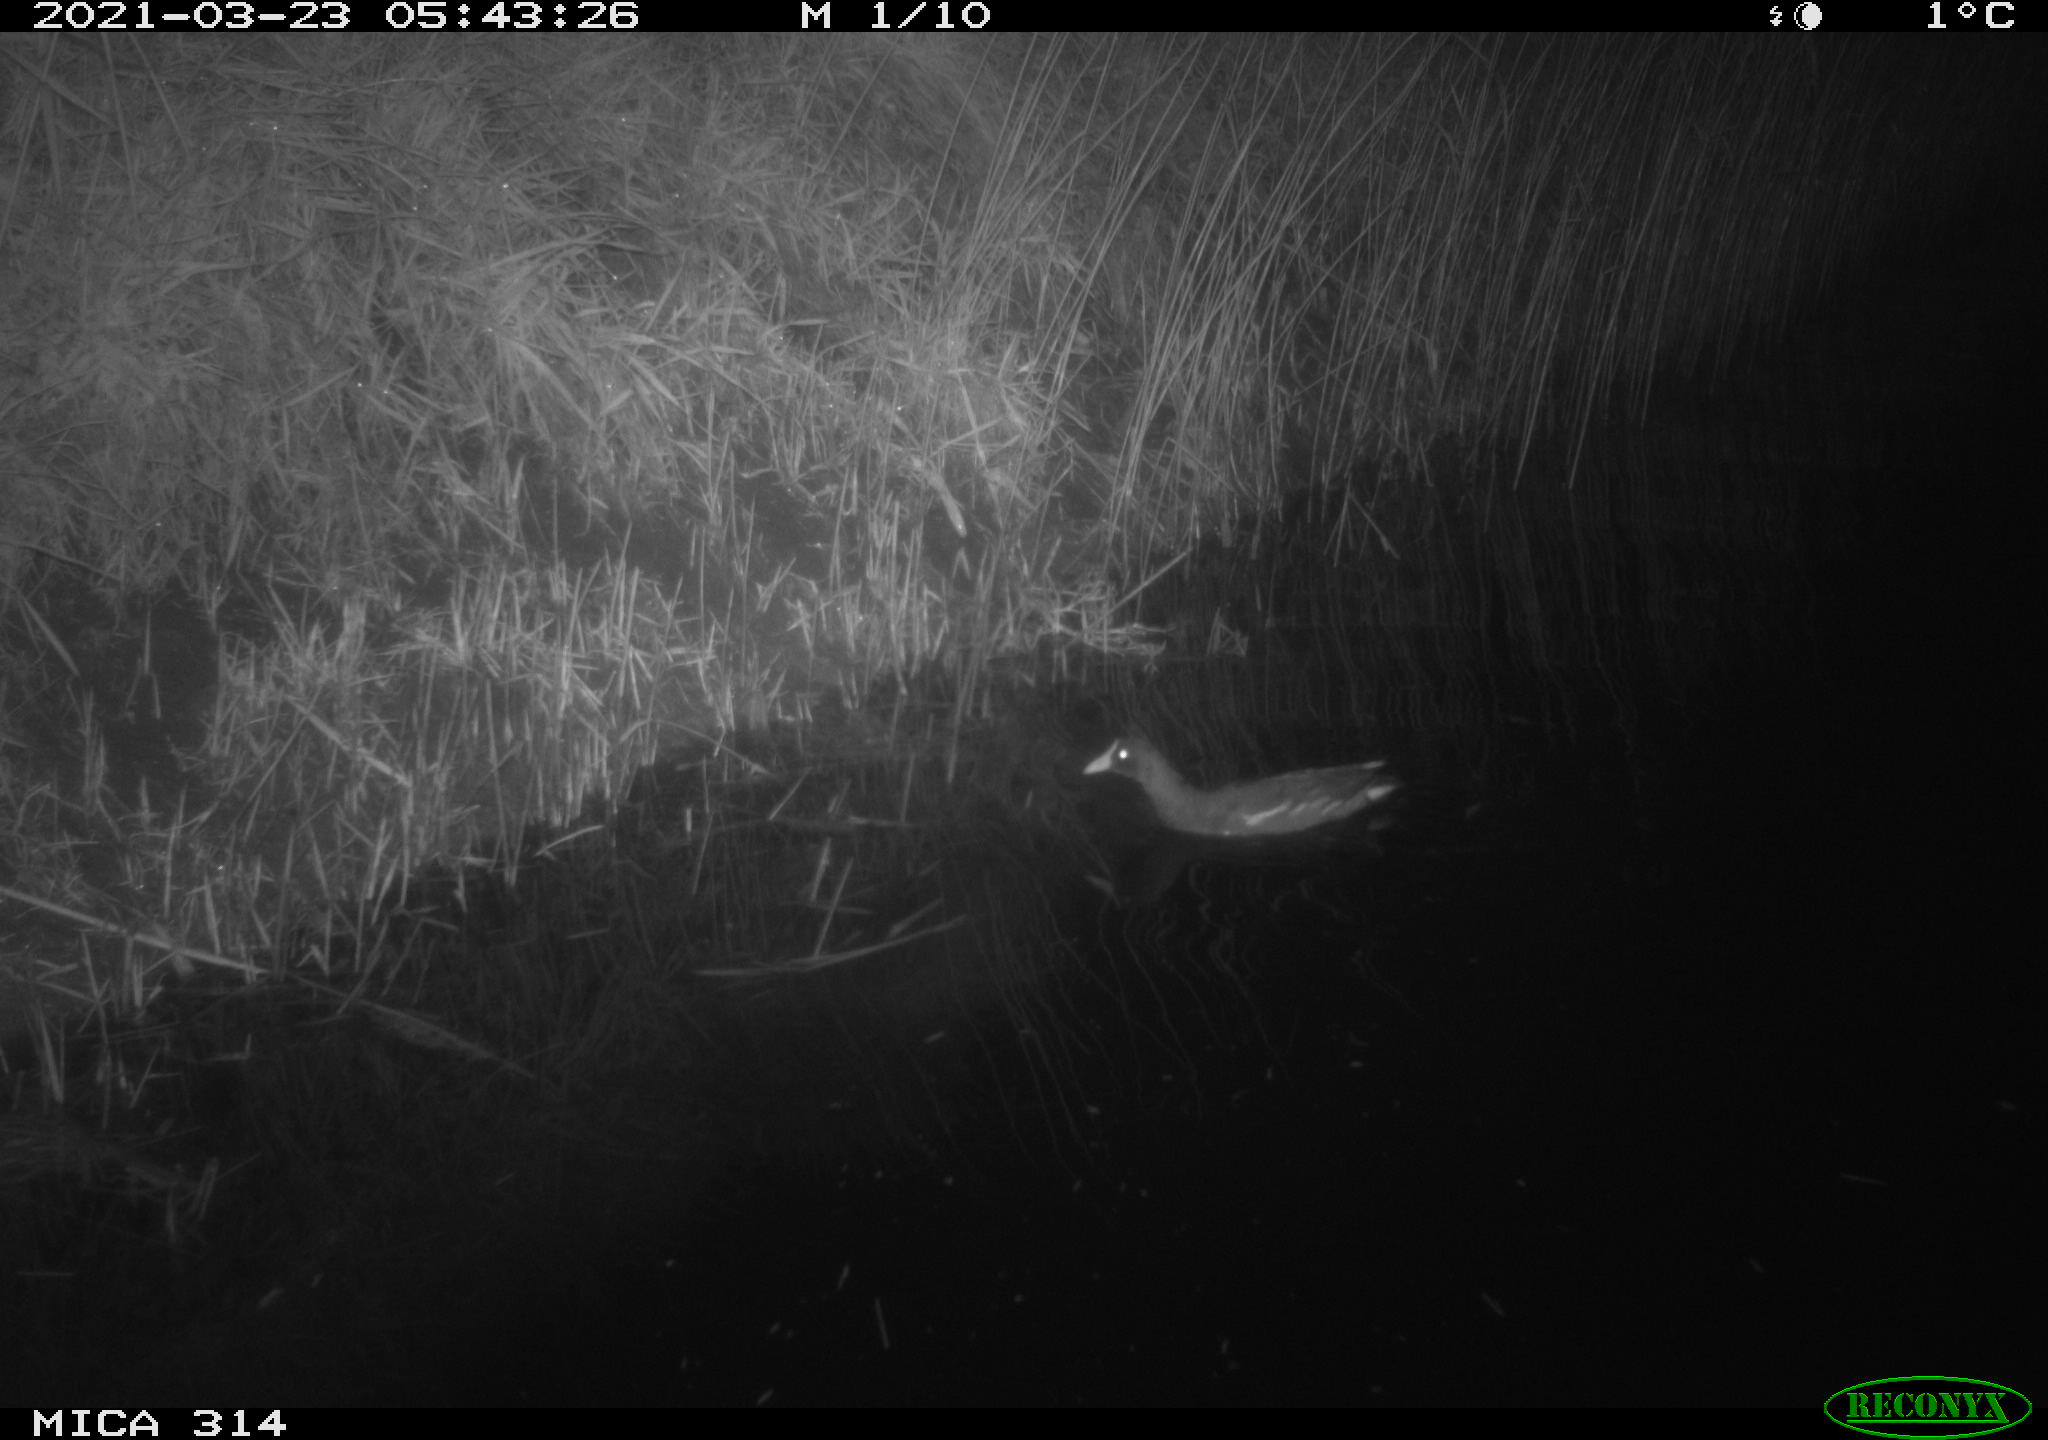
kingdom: Animalia
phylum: Chordata
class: Aves
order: Gruiformes
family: Rallidae
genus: Gallinula
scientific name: Gallinula chloropus
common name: Common moorhen
